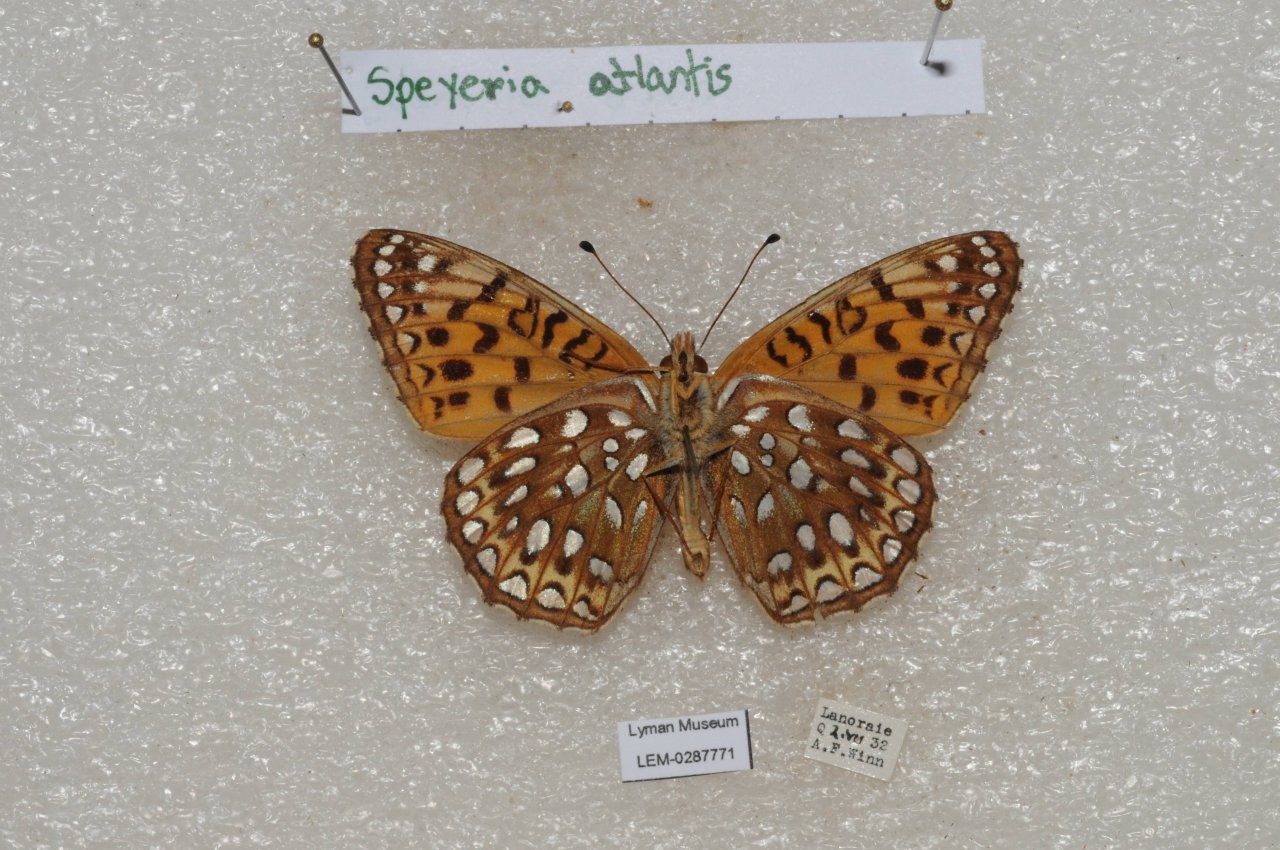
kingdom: Animalia
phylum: Arthropoda
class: Insecta
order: Lepidoptera
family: Nymphalidae
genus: Speyeria
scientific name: Speyeria atlantis
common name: Atlantis Fritillary
